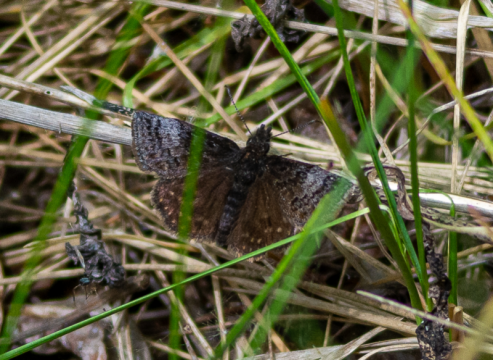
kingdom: Animalia
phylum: Arthropoda
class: Insecta
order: Lepidoptera
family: Hesperiidae
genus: Erynnis
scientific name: Erynnis icelus
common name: Dreamy Duskywing
